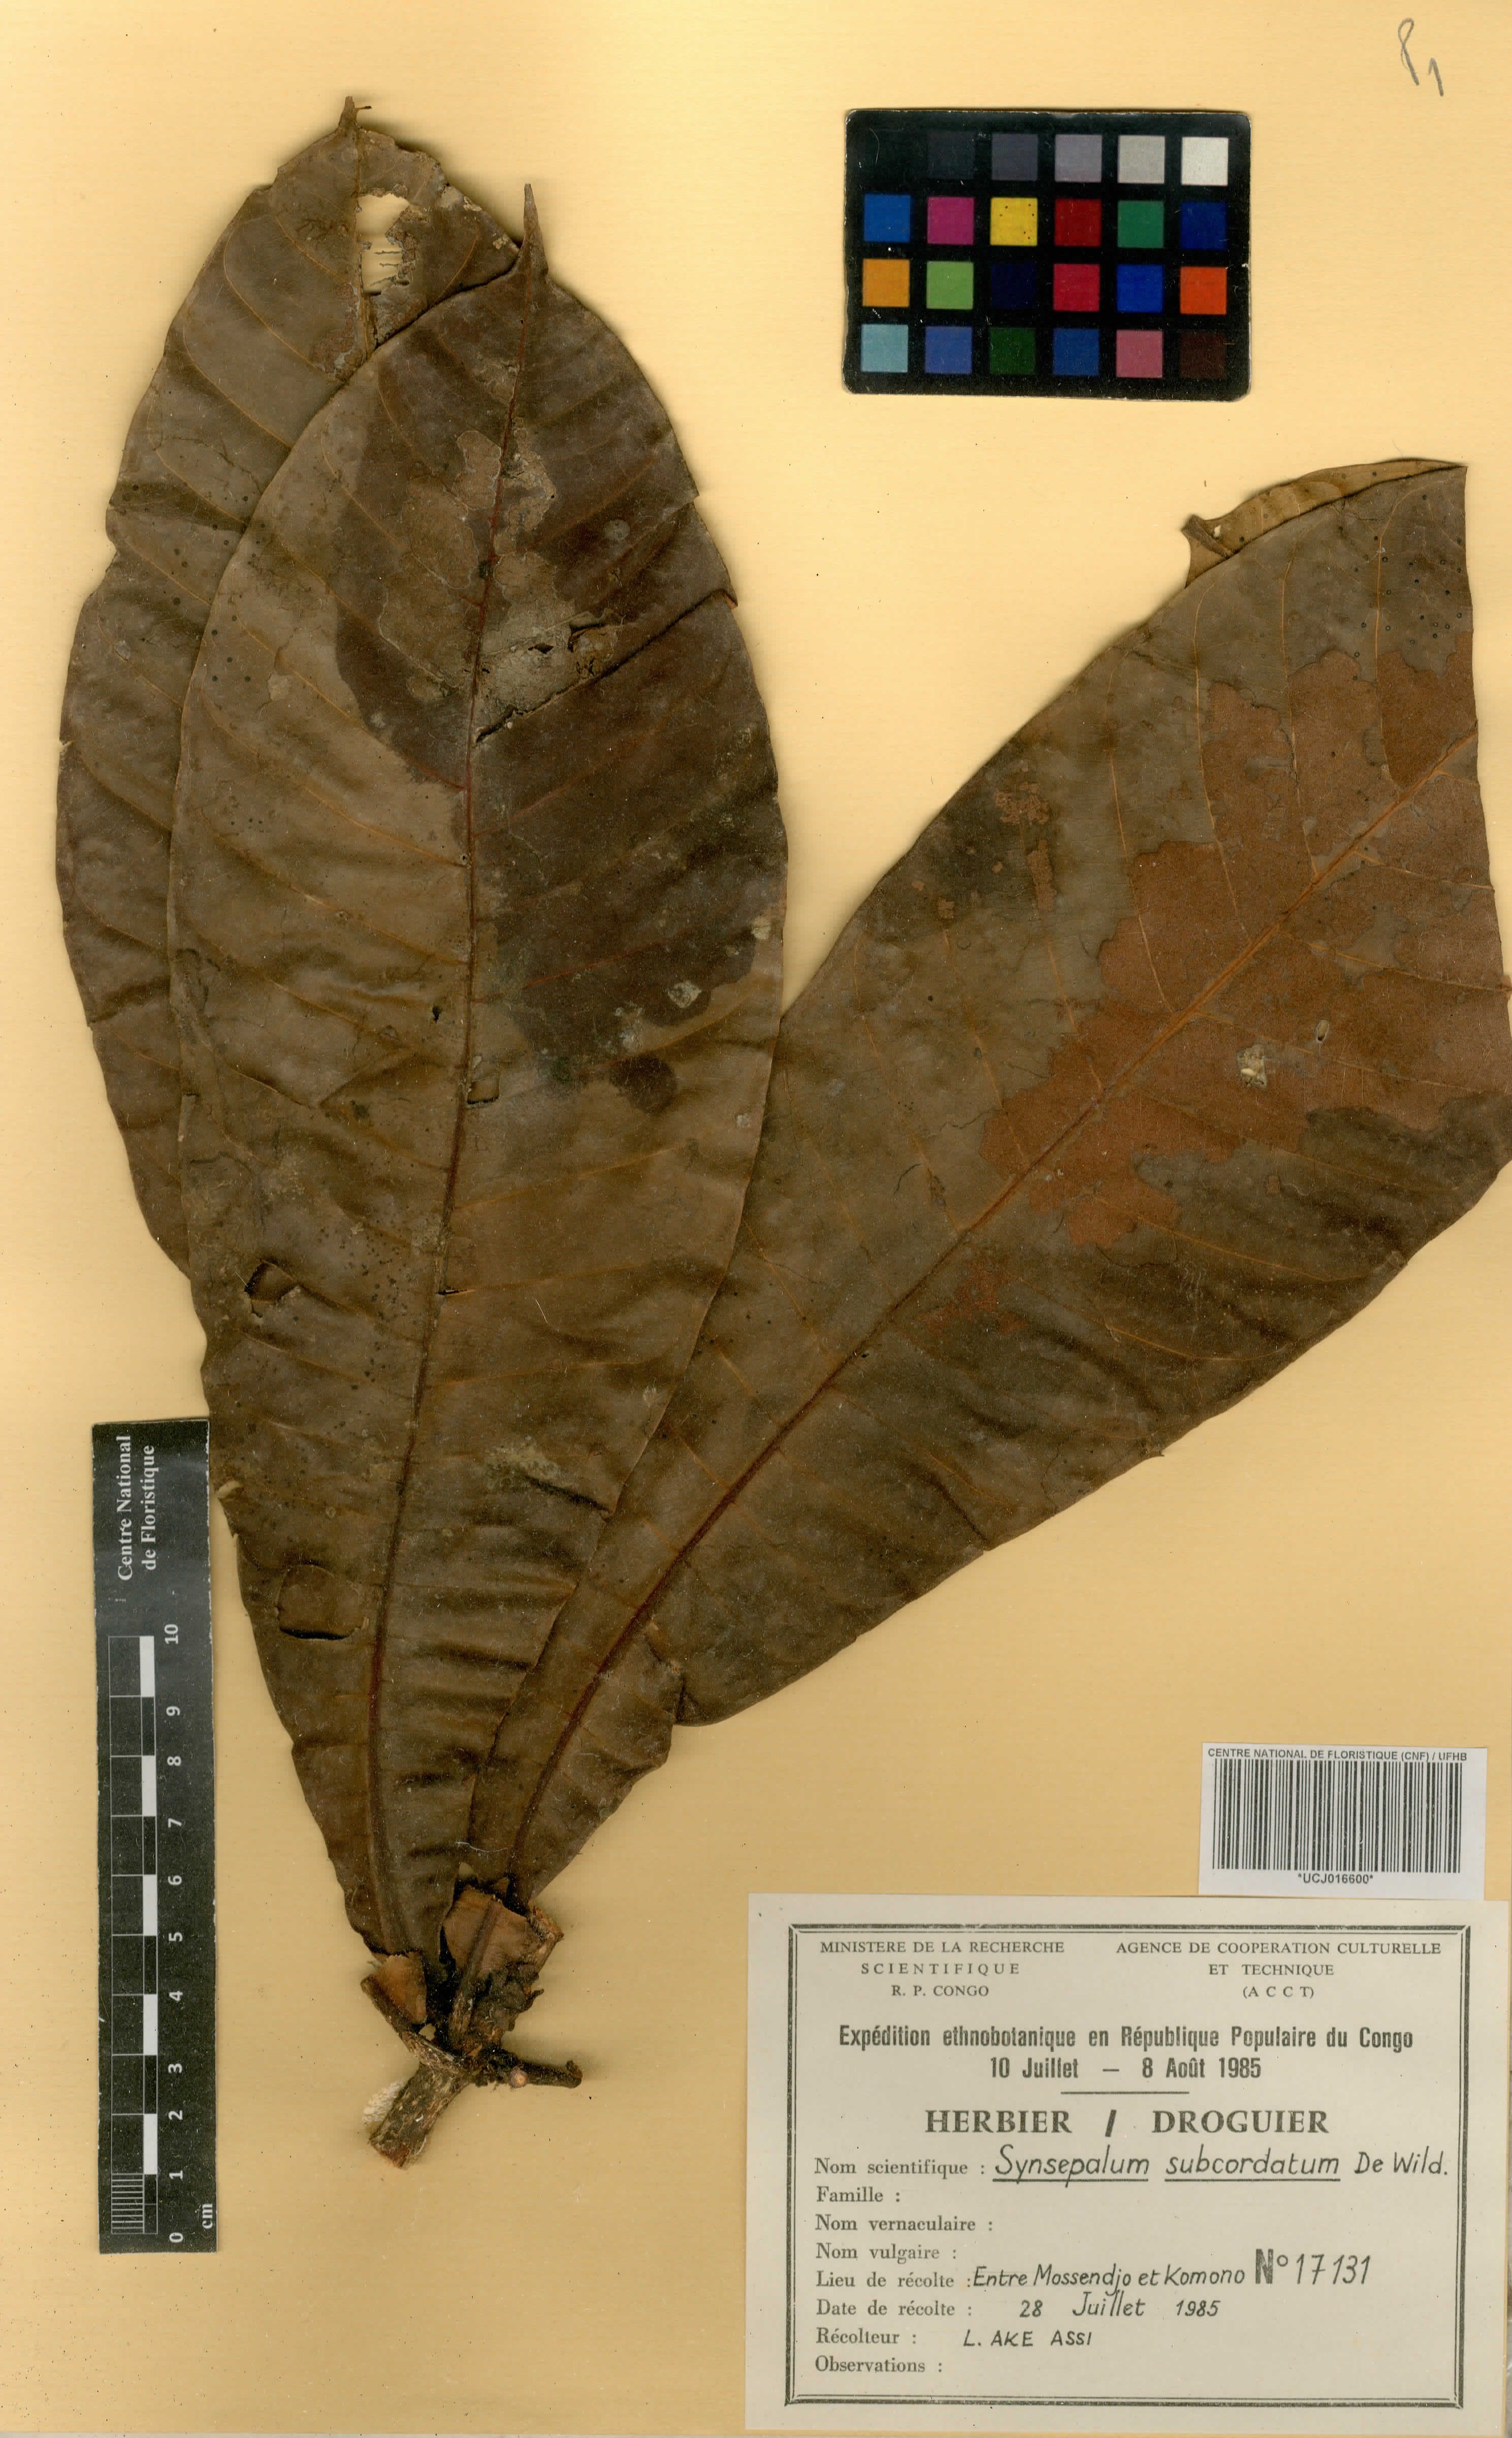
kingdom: Plantae
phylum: Tracheophyta
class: Magnoliopsida
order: Ericales
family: Sapotaceae
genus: Synsepalum
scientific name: Synsepalum subcordatum
